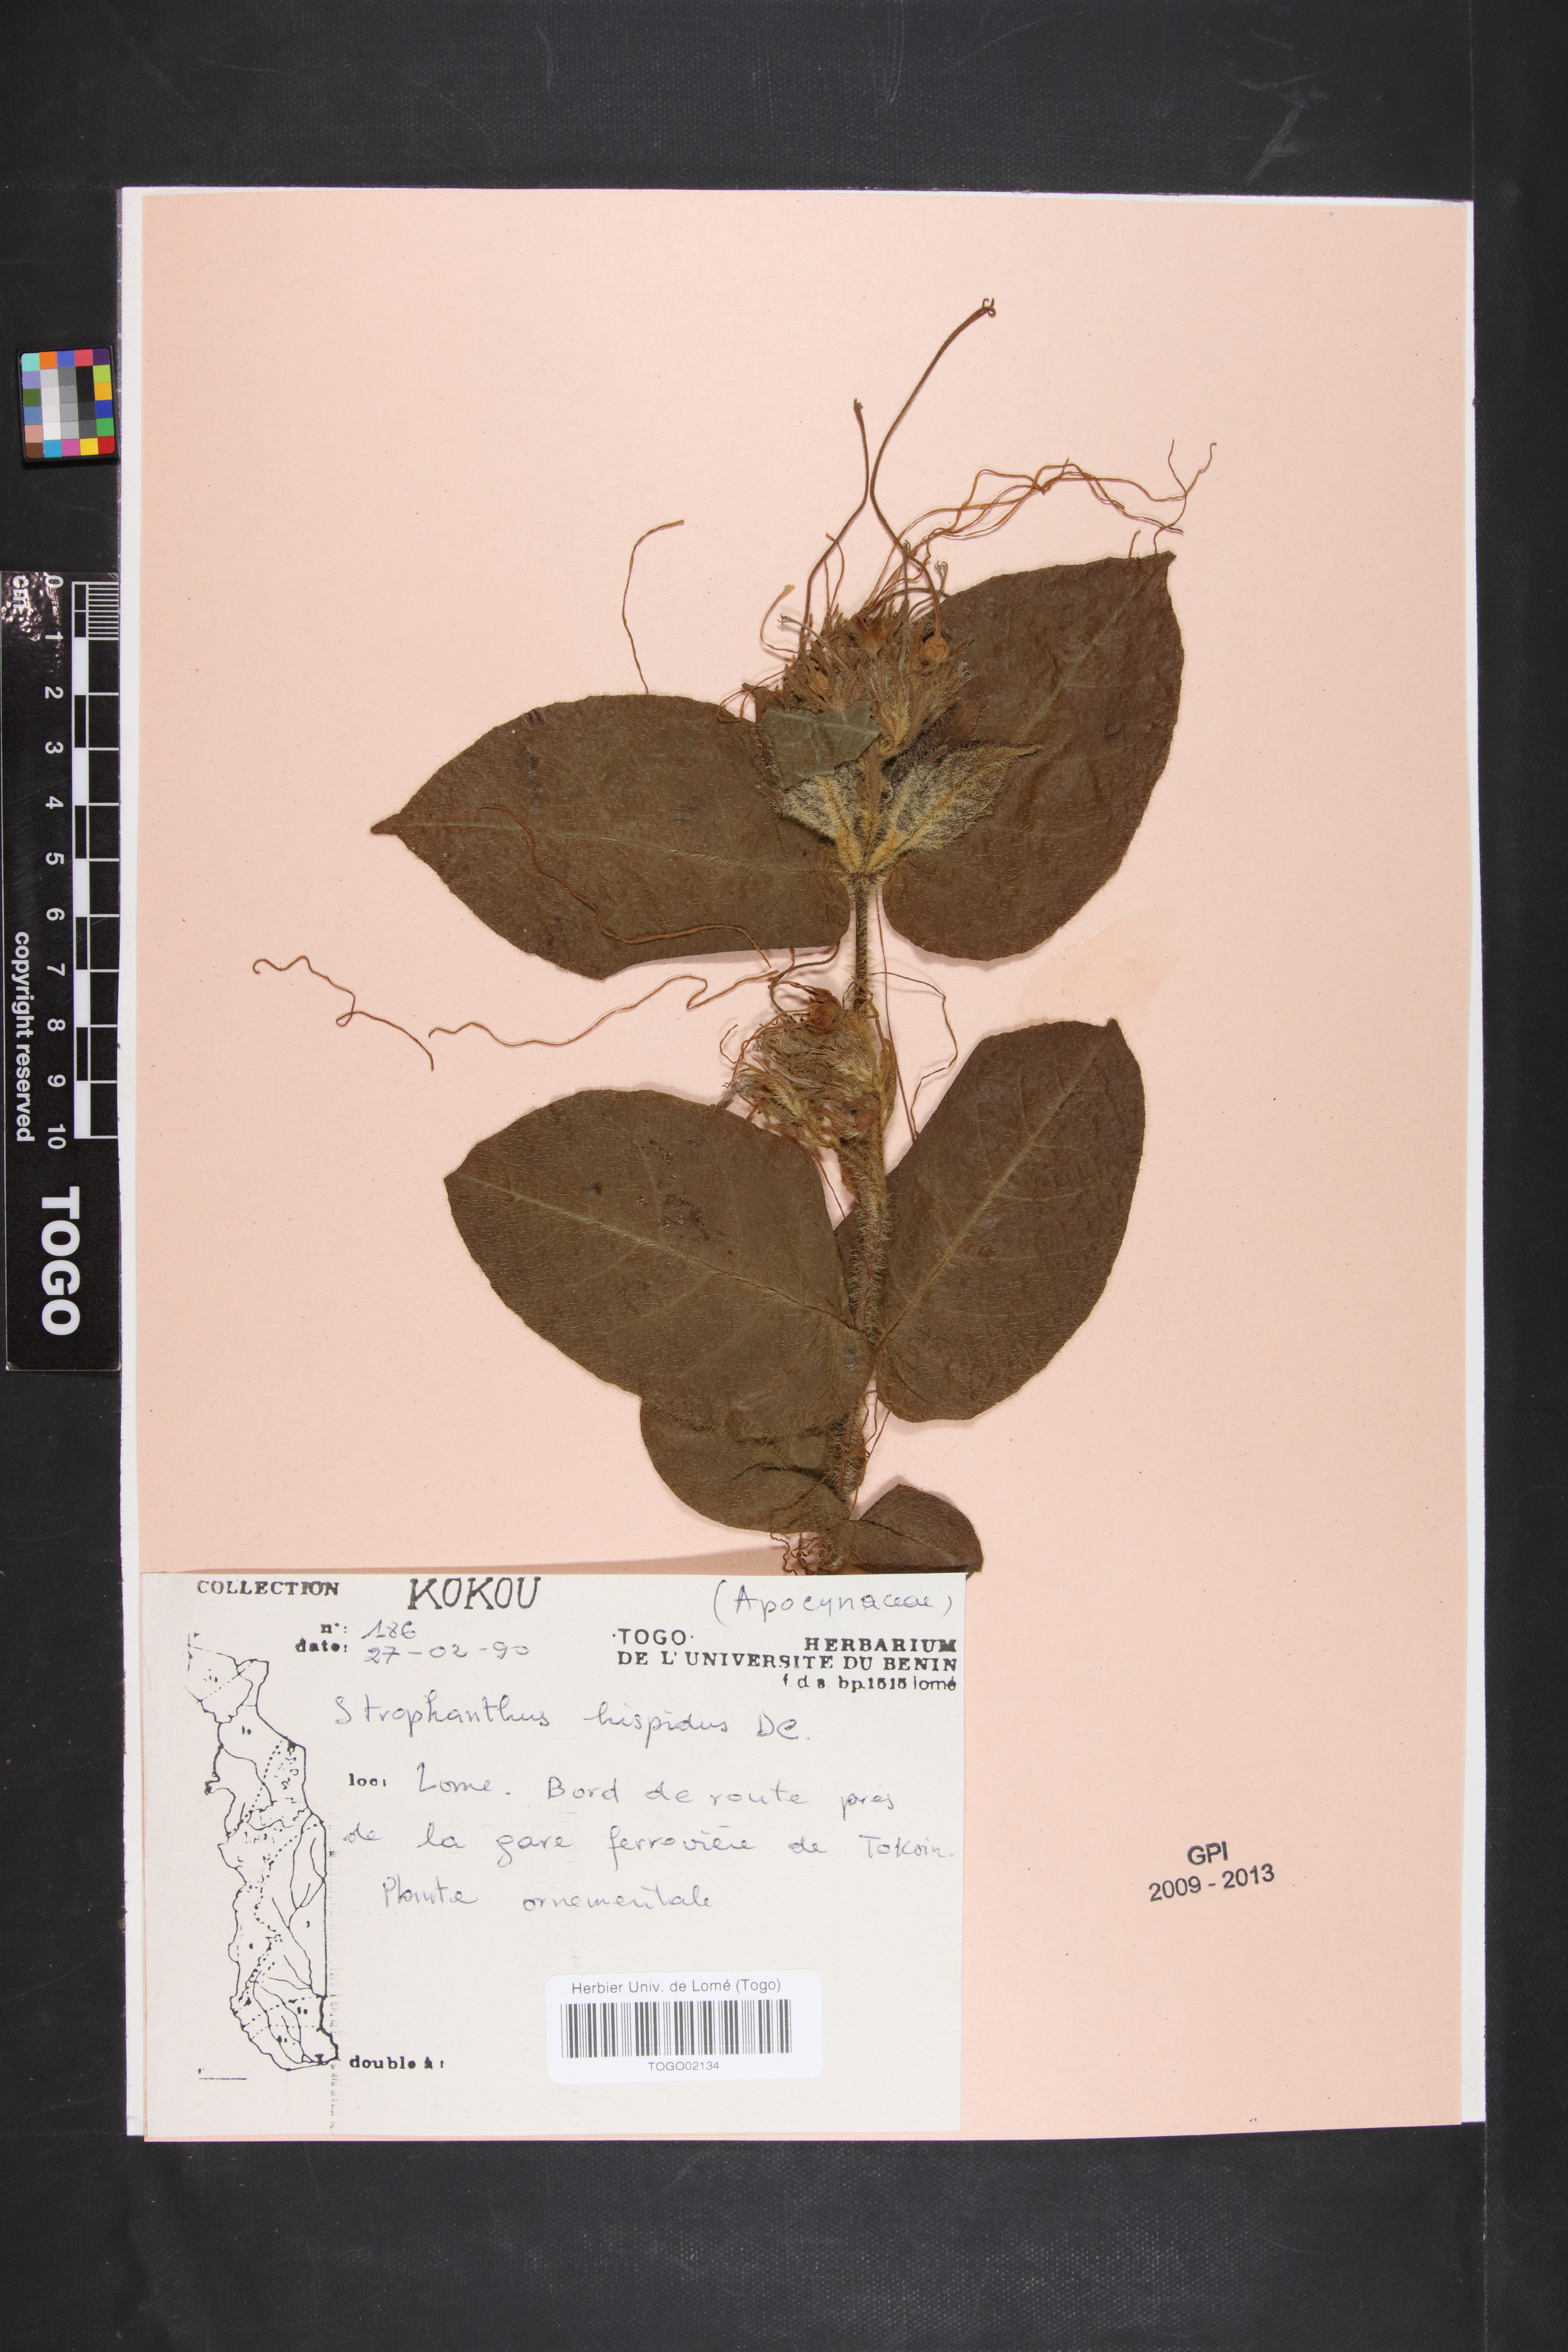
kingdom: Plantae
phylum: Tracheophyta
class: Magnoliopsida
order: Gentianales
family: Apocynaceae
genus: Strophanthus
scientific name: Strophanthus hispidus
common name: Hairy strophanthus
